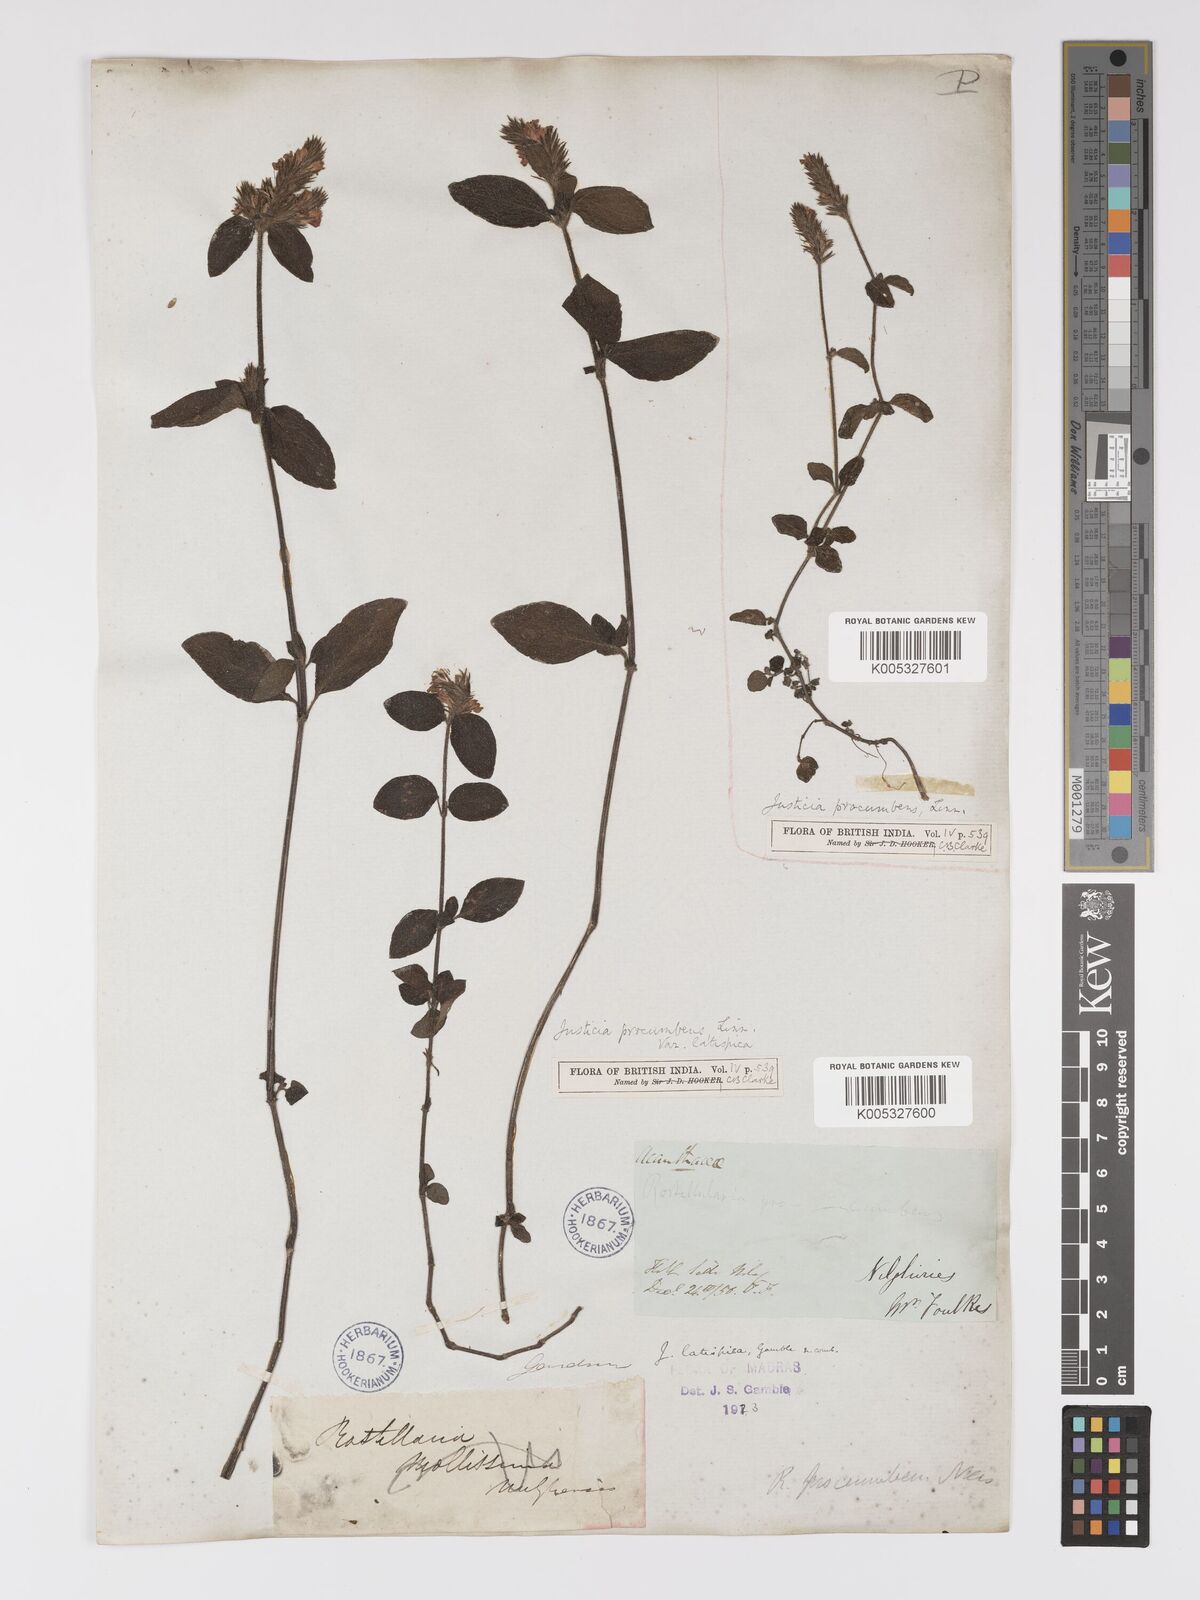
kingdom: Plantae
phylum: Tracheophyta
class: Magnoliopsida
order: Lamiales
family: Acanthaceae
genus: Rostellularia
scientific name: Rostellularia latispica
